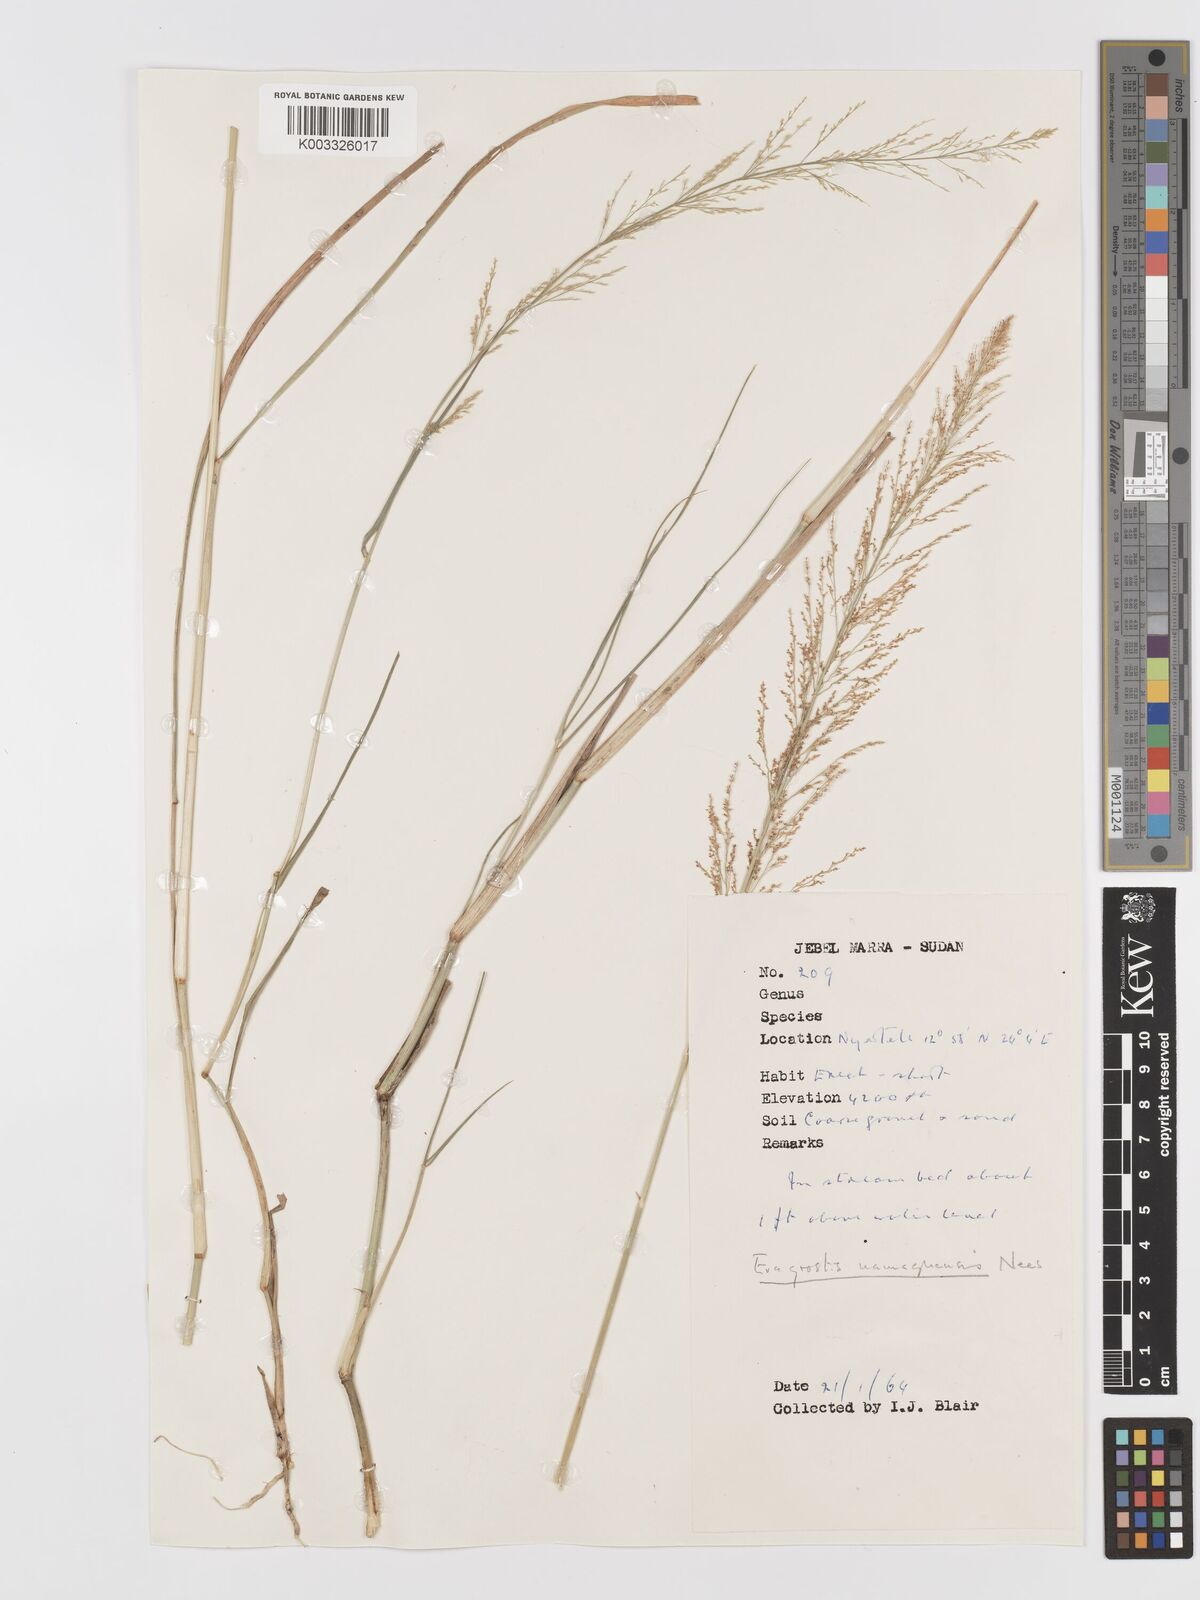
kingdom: Plantae
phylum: Tracheophyta
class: Liliopsida
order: Poales
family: Poaceae
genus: Eragrostis
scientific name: Eragrostis japonica
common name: Pond lovegrass
